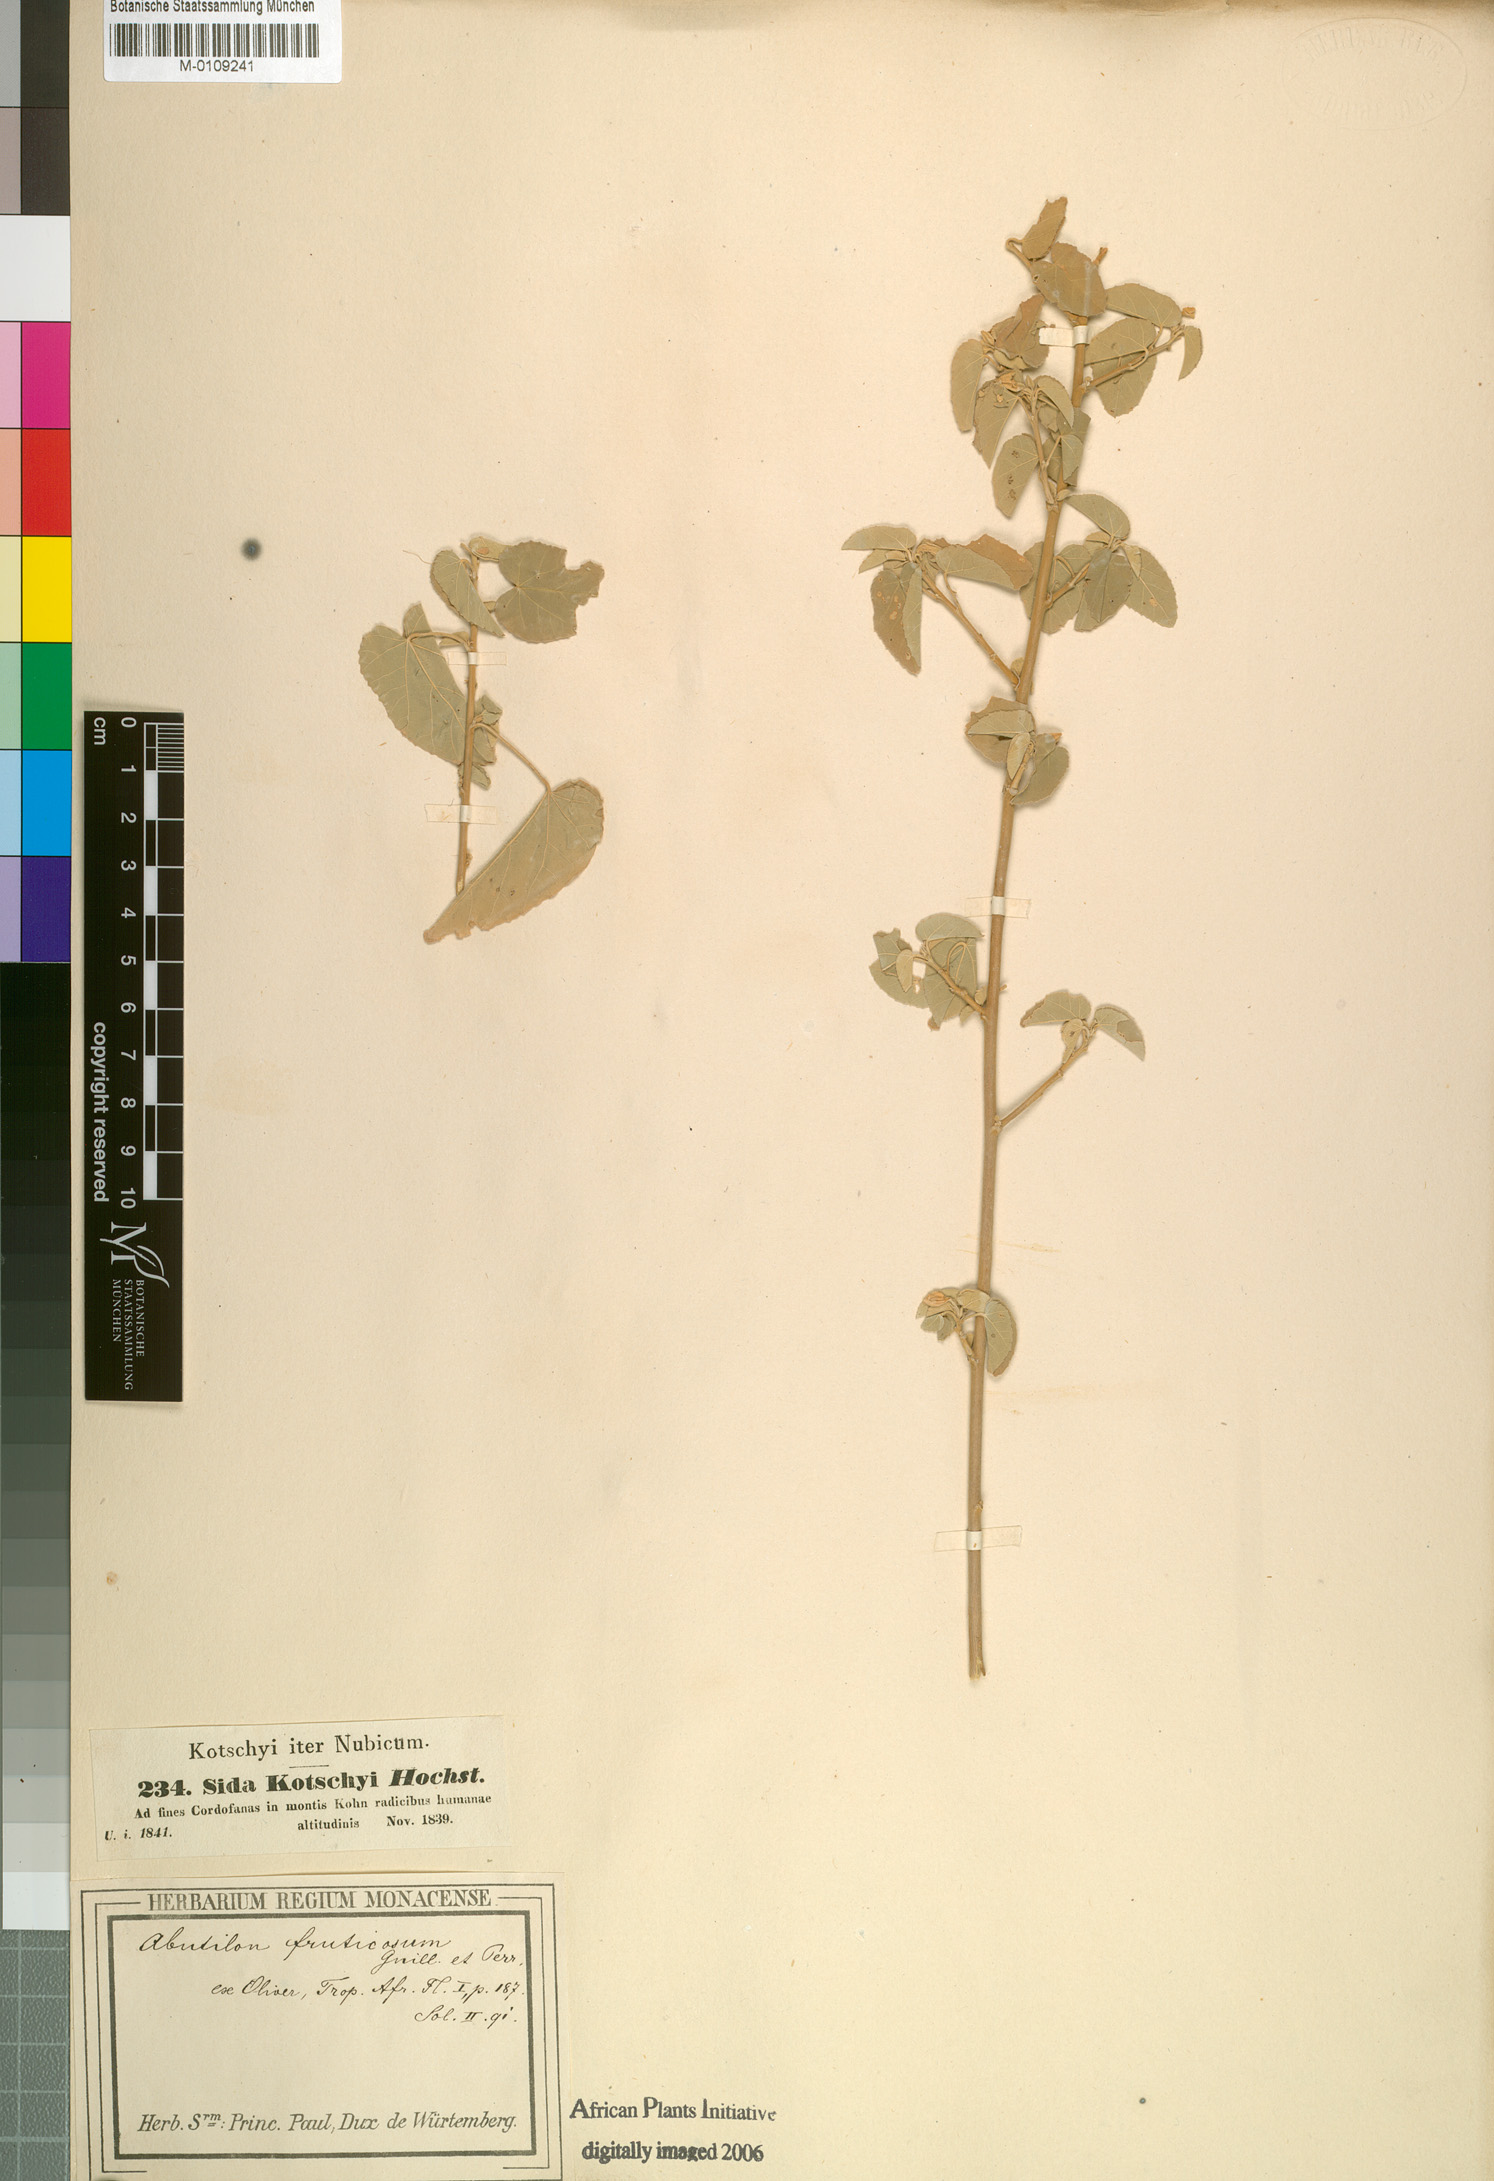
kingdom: Plantae
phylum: Tracheophyta
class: Magnoliopsida
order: Malvales
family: Malvaceae
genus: Abutilon
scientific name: Abutilon fruticosum
